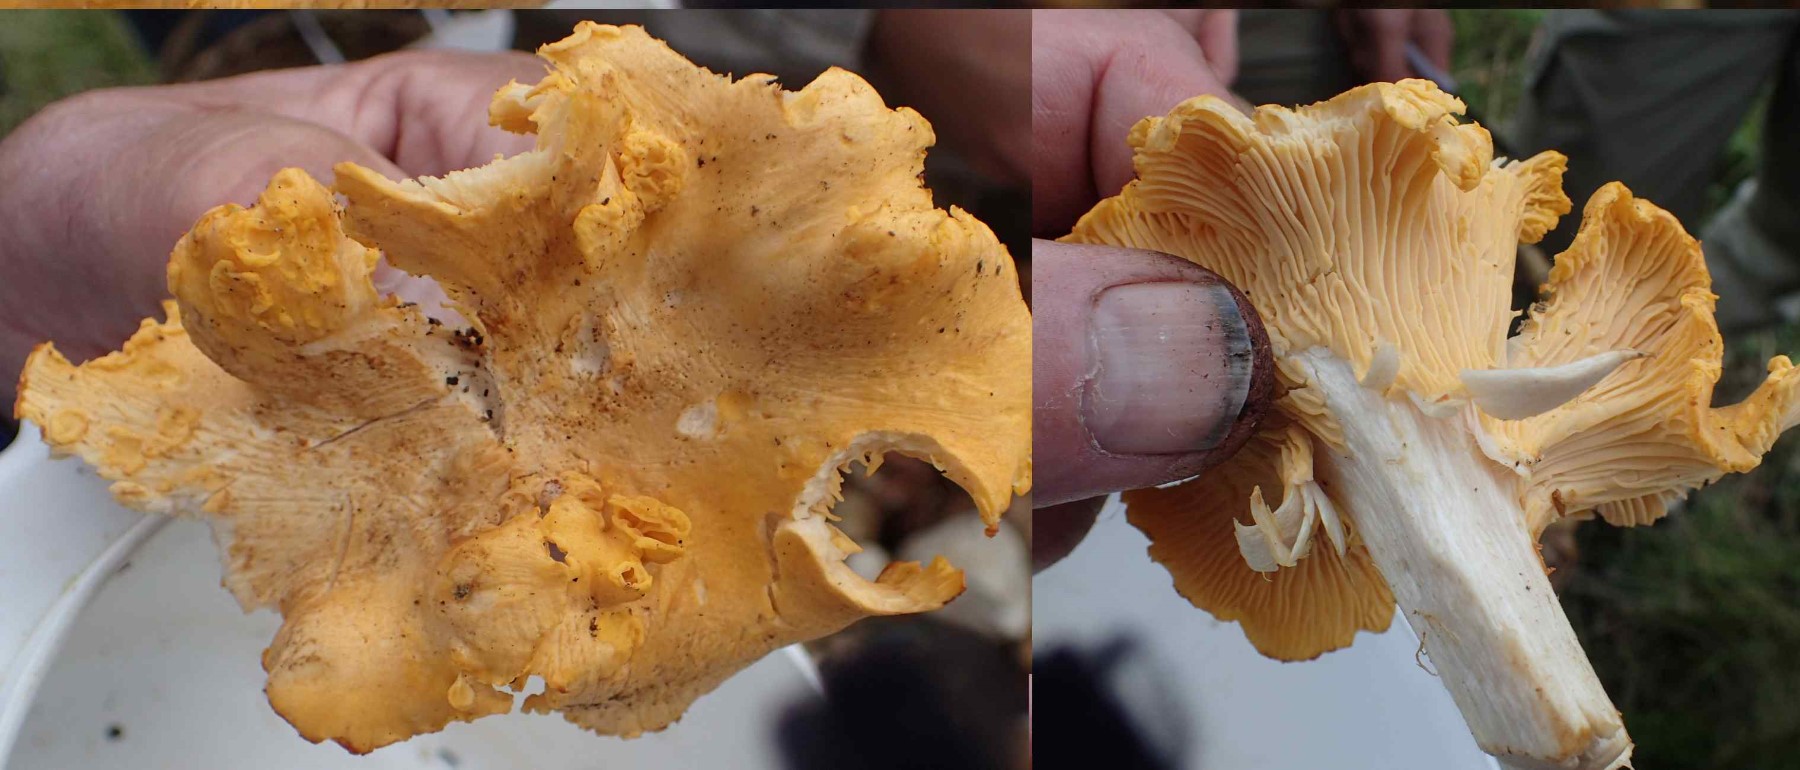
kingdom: Fungi
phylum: Basidiomycota
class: Agaricomycetes
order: Cantharellales
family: Hydnaceae
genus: Cantharellus
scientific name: Cantharellus amethysteus
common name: ametyst-kantarel
